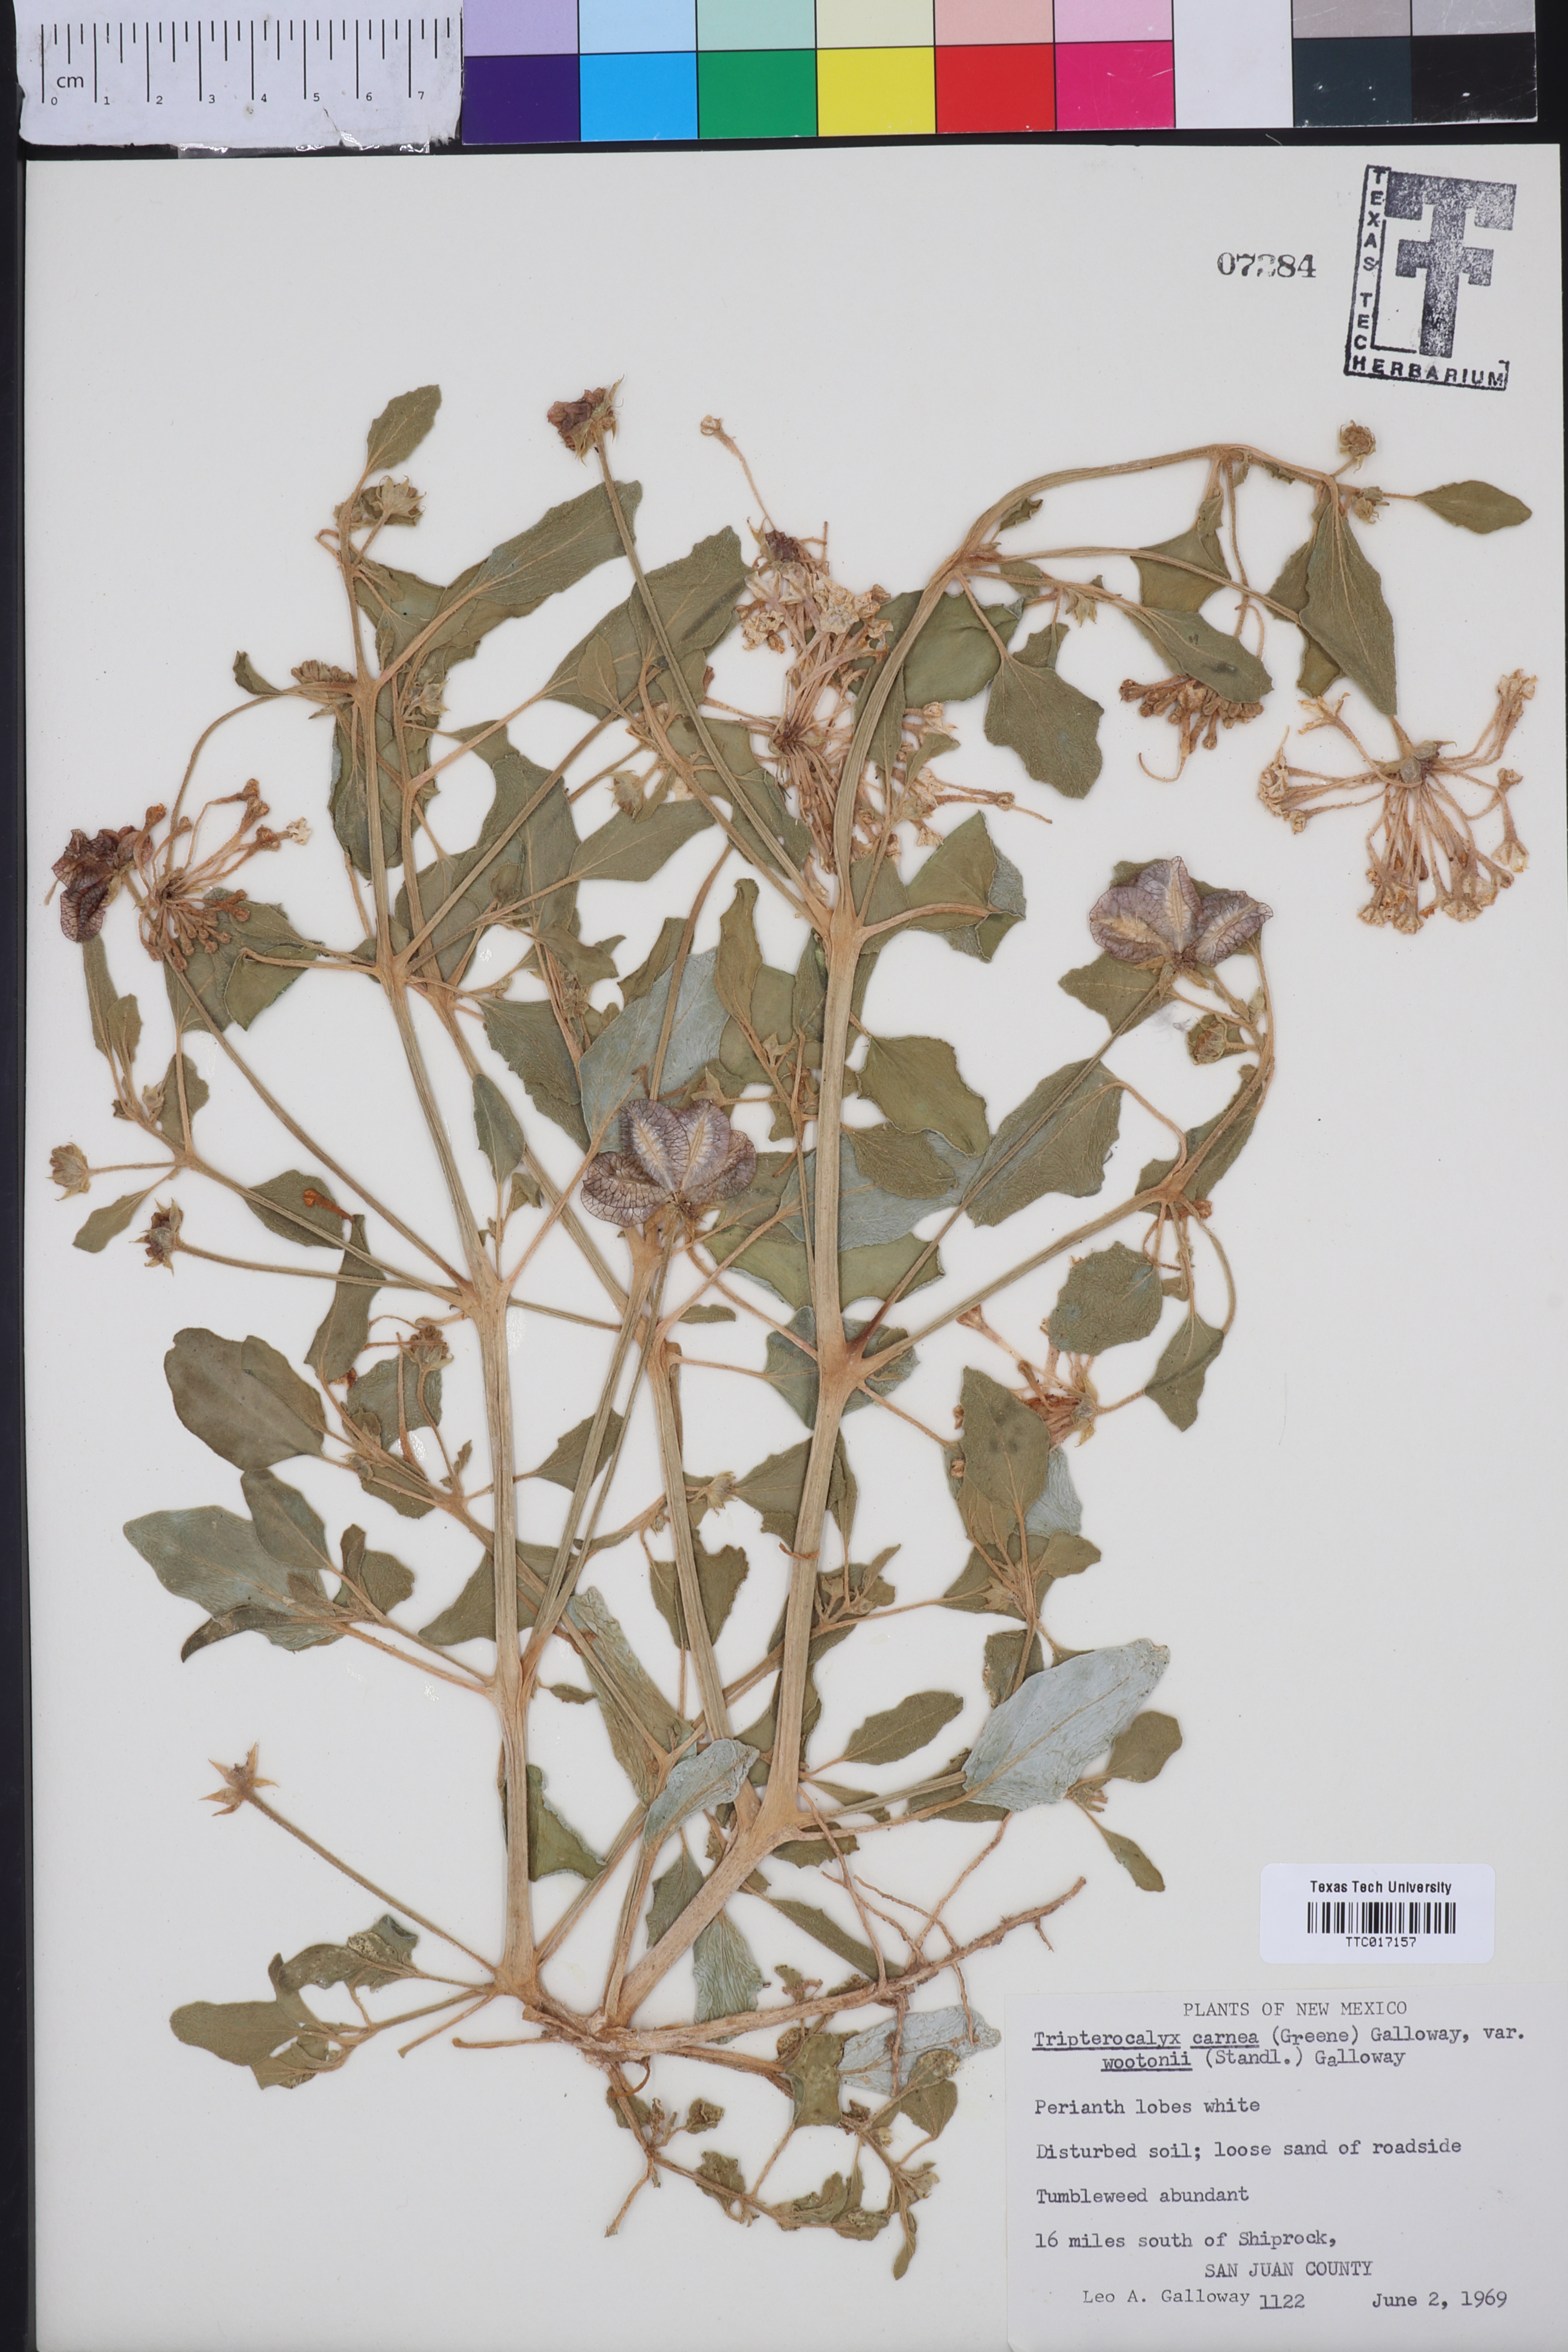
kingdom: Plantae
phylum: Tracheophyta
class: Magnoliopsida
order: Caryophyllales
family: Nyctaginaceae
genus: Tripterocalyx
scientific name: Tripterocalyx wootonii
